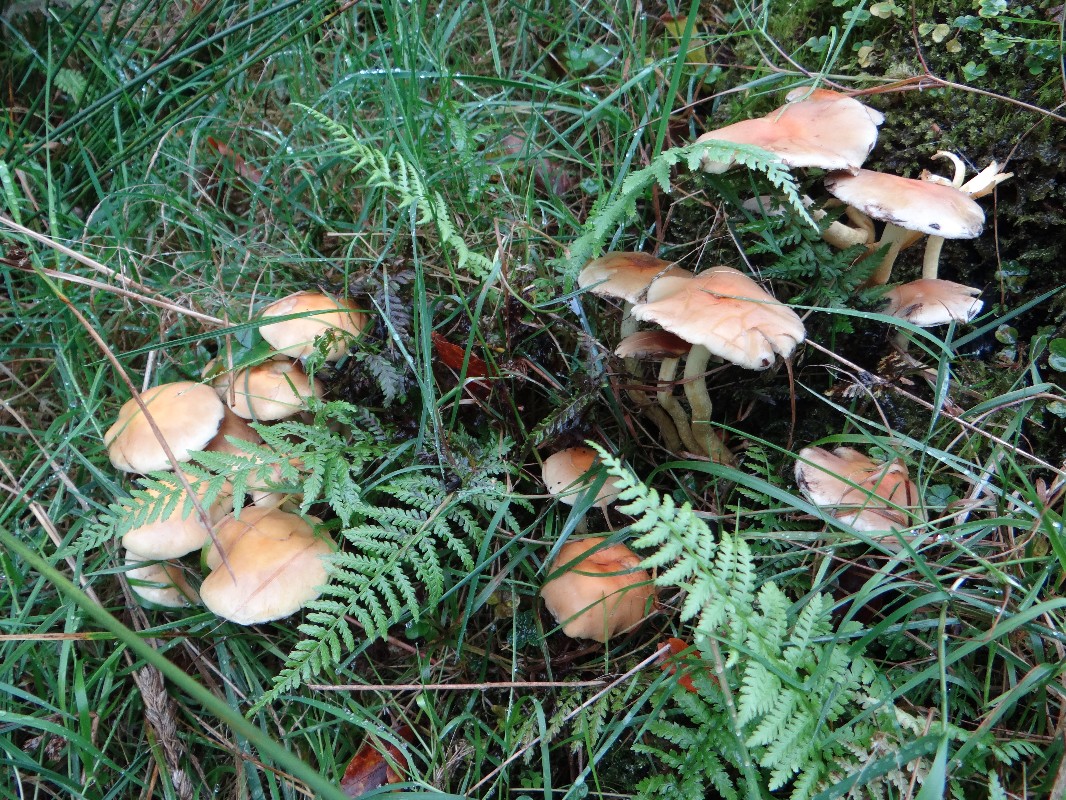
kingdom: Fungi
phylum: Basidiomycota
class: Agaricomycetes
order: Agaricales
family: Strophariaceae
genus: Hypholoma
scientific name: Hypholoma fasciculare
